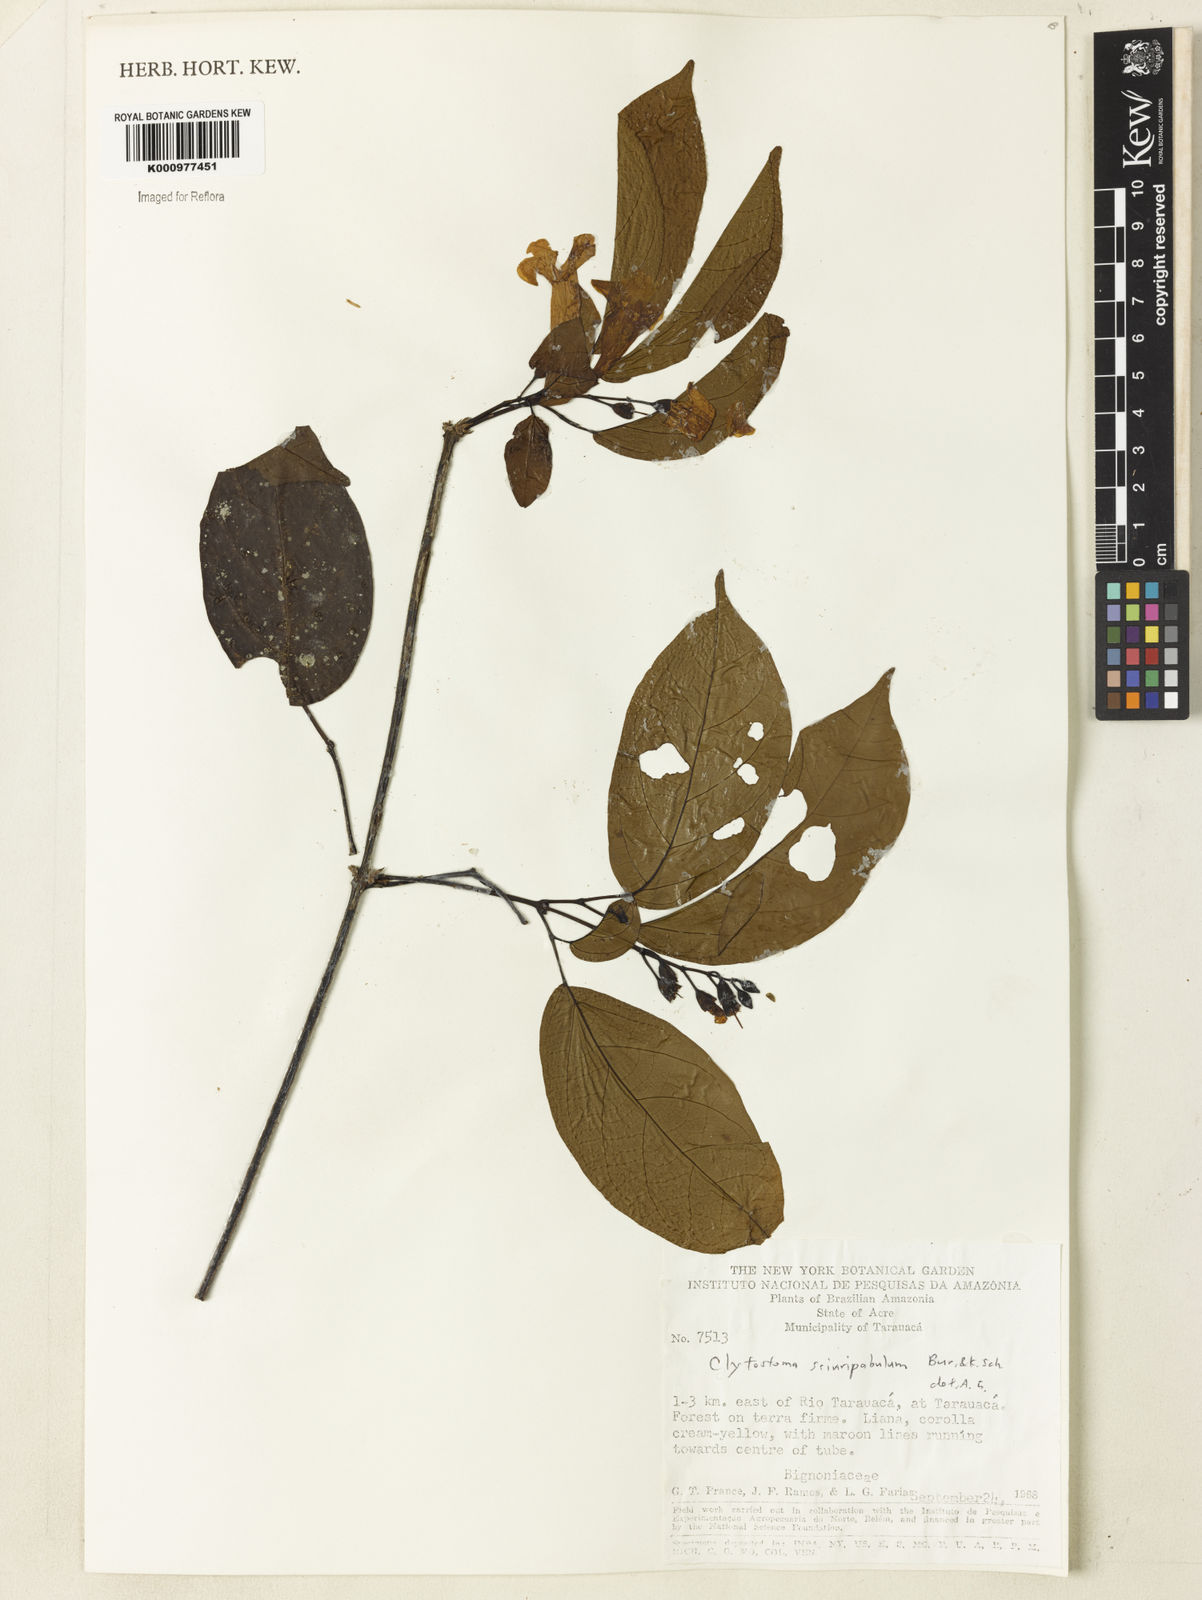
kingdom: Plantae
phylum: Tracheophyta
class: Magnoliopsida
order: Lamiales
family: Bignoniaceae
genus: Bignonia
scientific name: Bignonia
